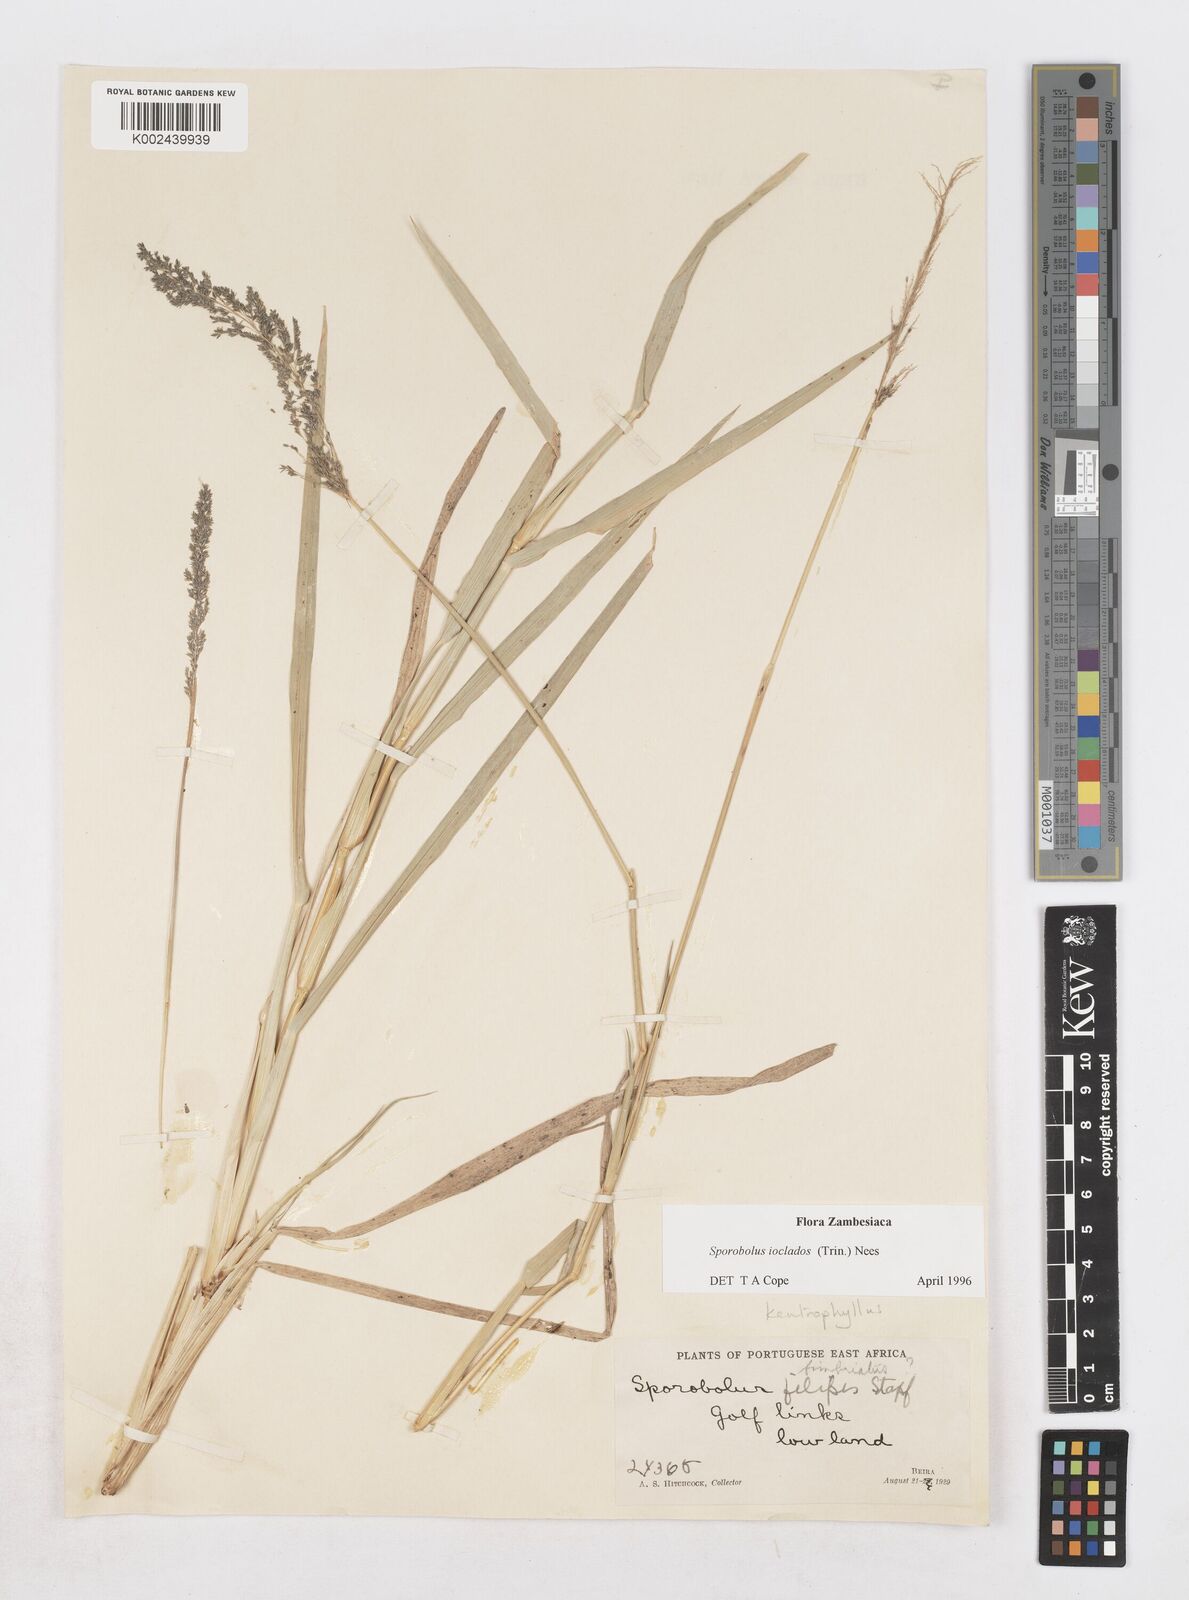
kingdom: Plantae
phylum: Tracheophyta
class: Liliopsida
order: Poales
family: Poaceae
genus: Sporobolus
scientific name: Sporobolus ioclados
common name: Pan dropseed
